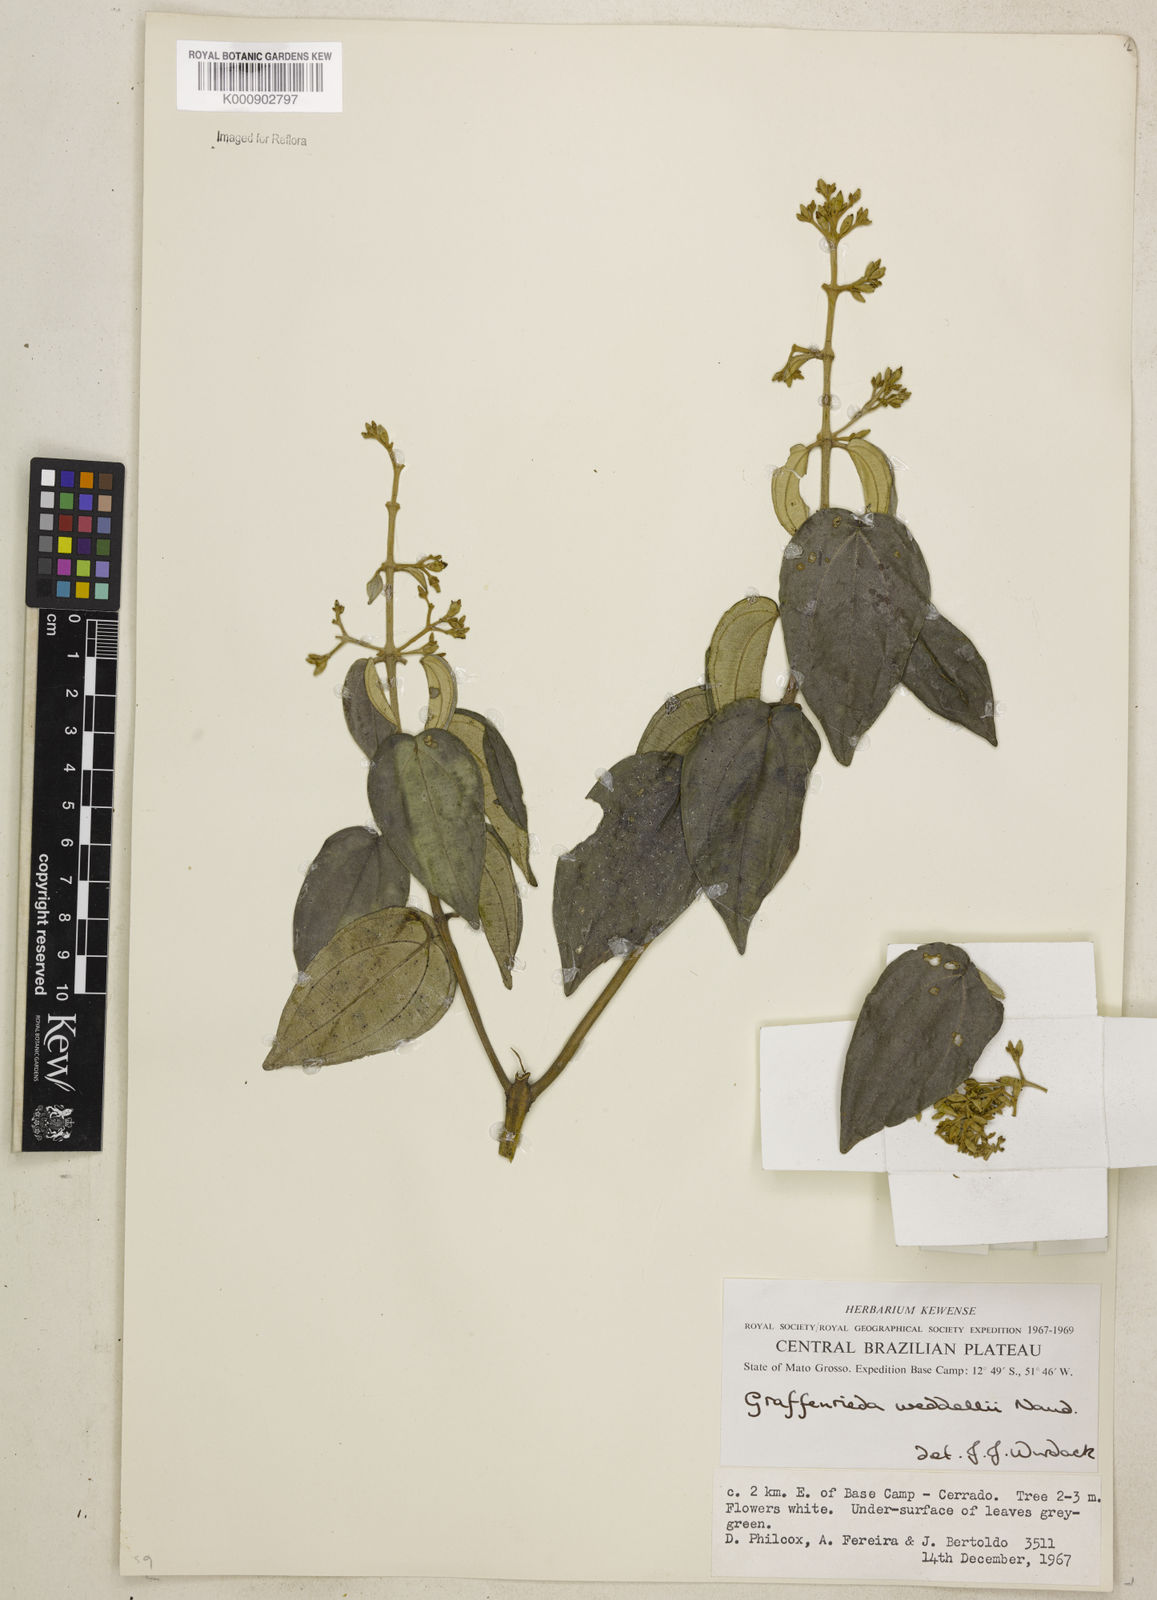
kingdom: Plantae
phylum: Tracheophyta
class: Magnoliopsida
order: Myrtales
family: Melastomataceae
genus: Graffenrieda
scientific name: Graffenrieda weddellii
